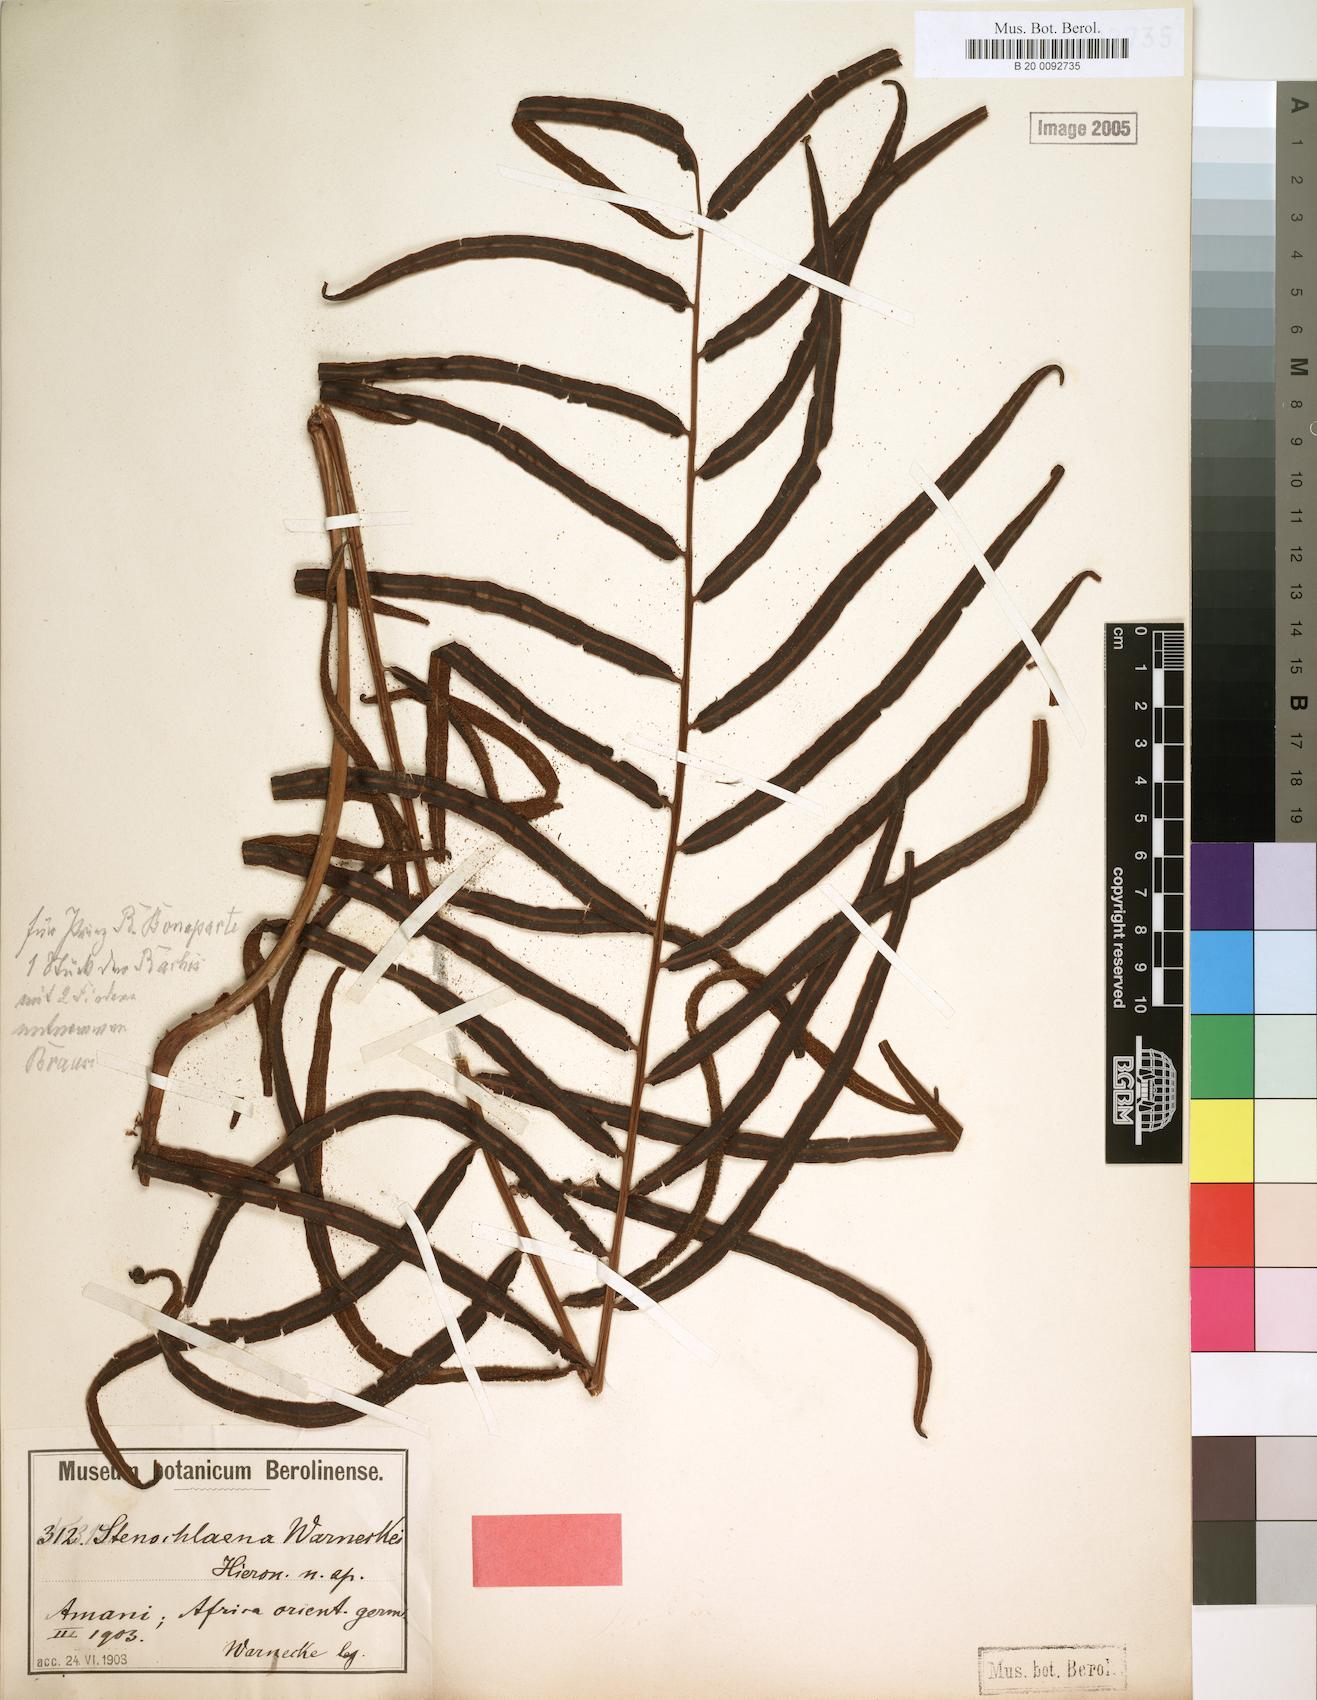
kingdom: Plantae
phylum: Tracheophyta
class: Polypodiopsida
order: Polypodiales
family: Lomariopsidaceae
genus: Lomariopsis
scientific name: Lomariopsis warneckei
